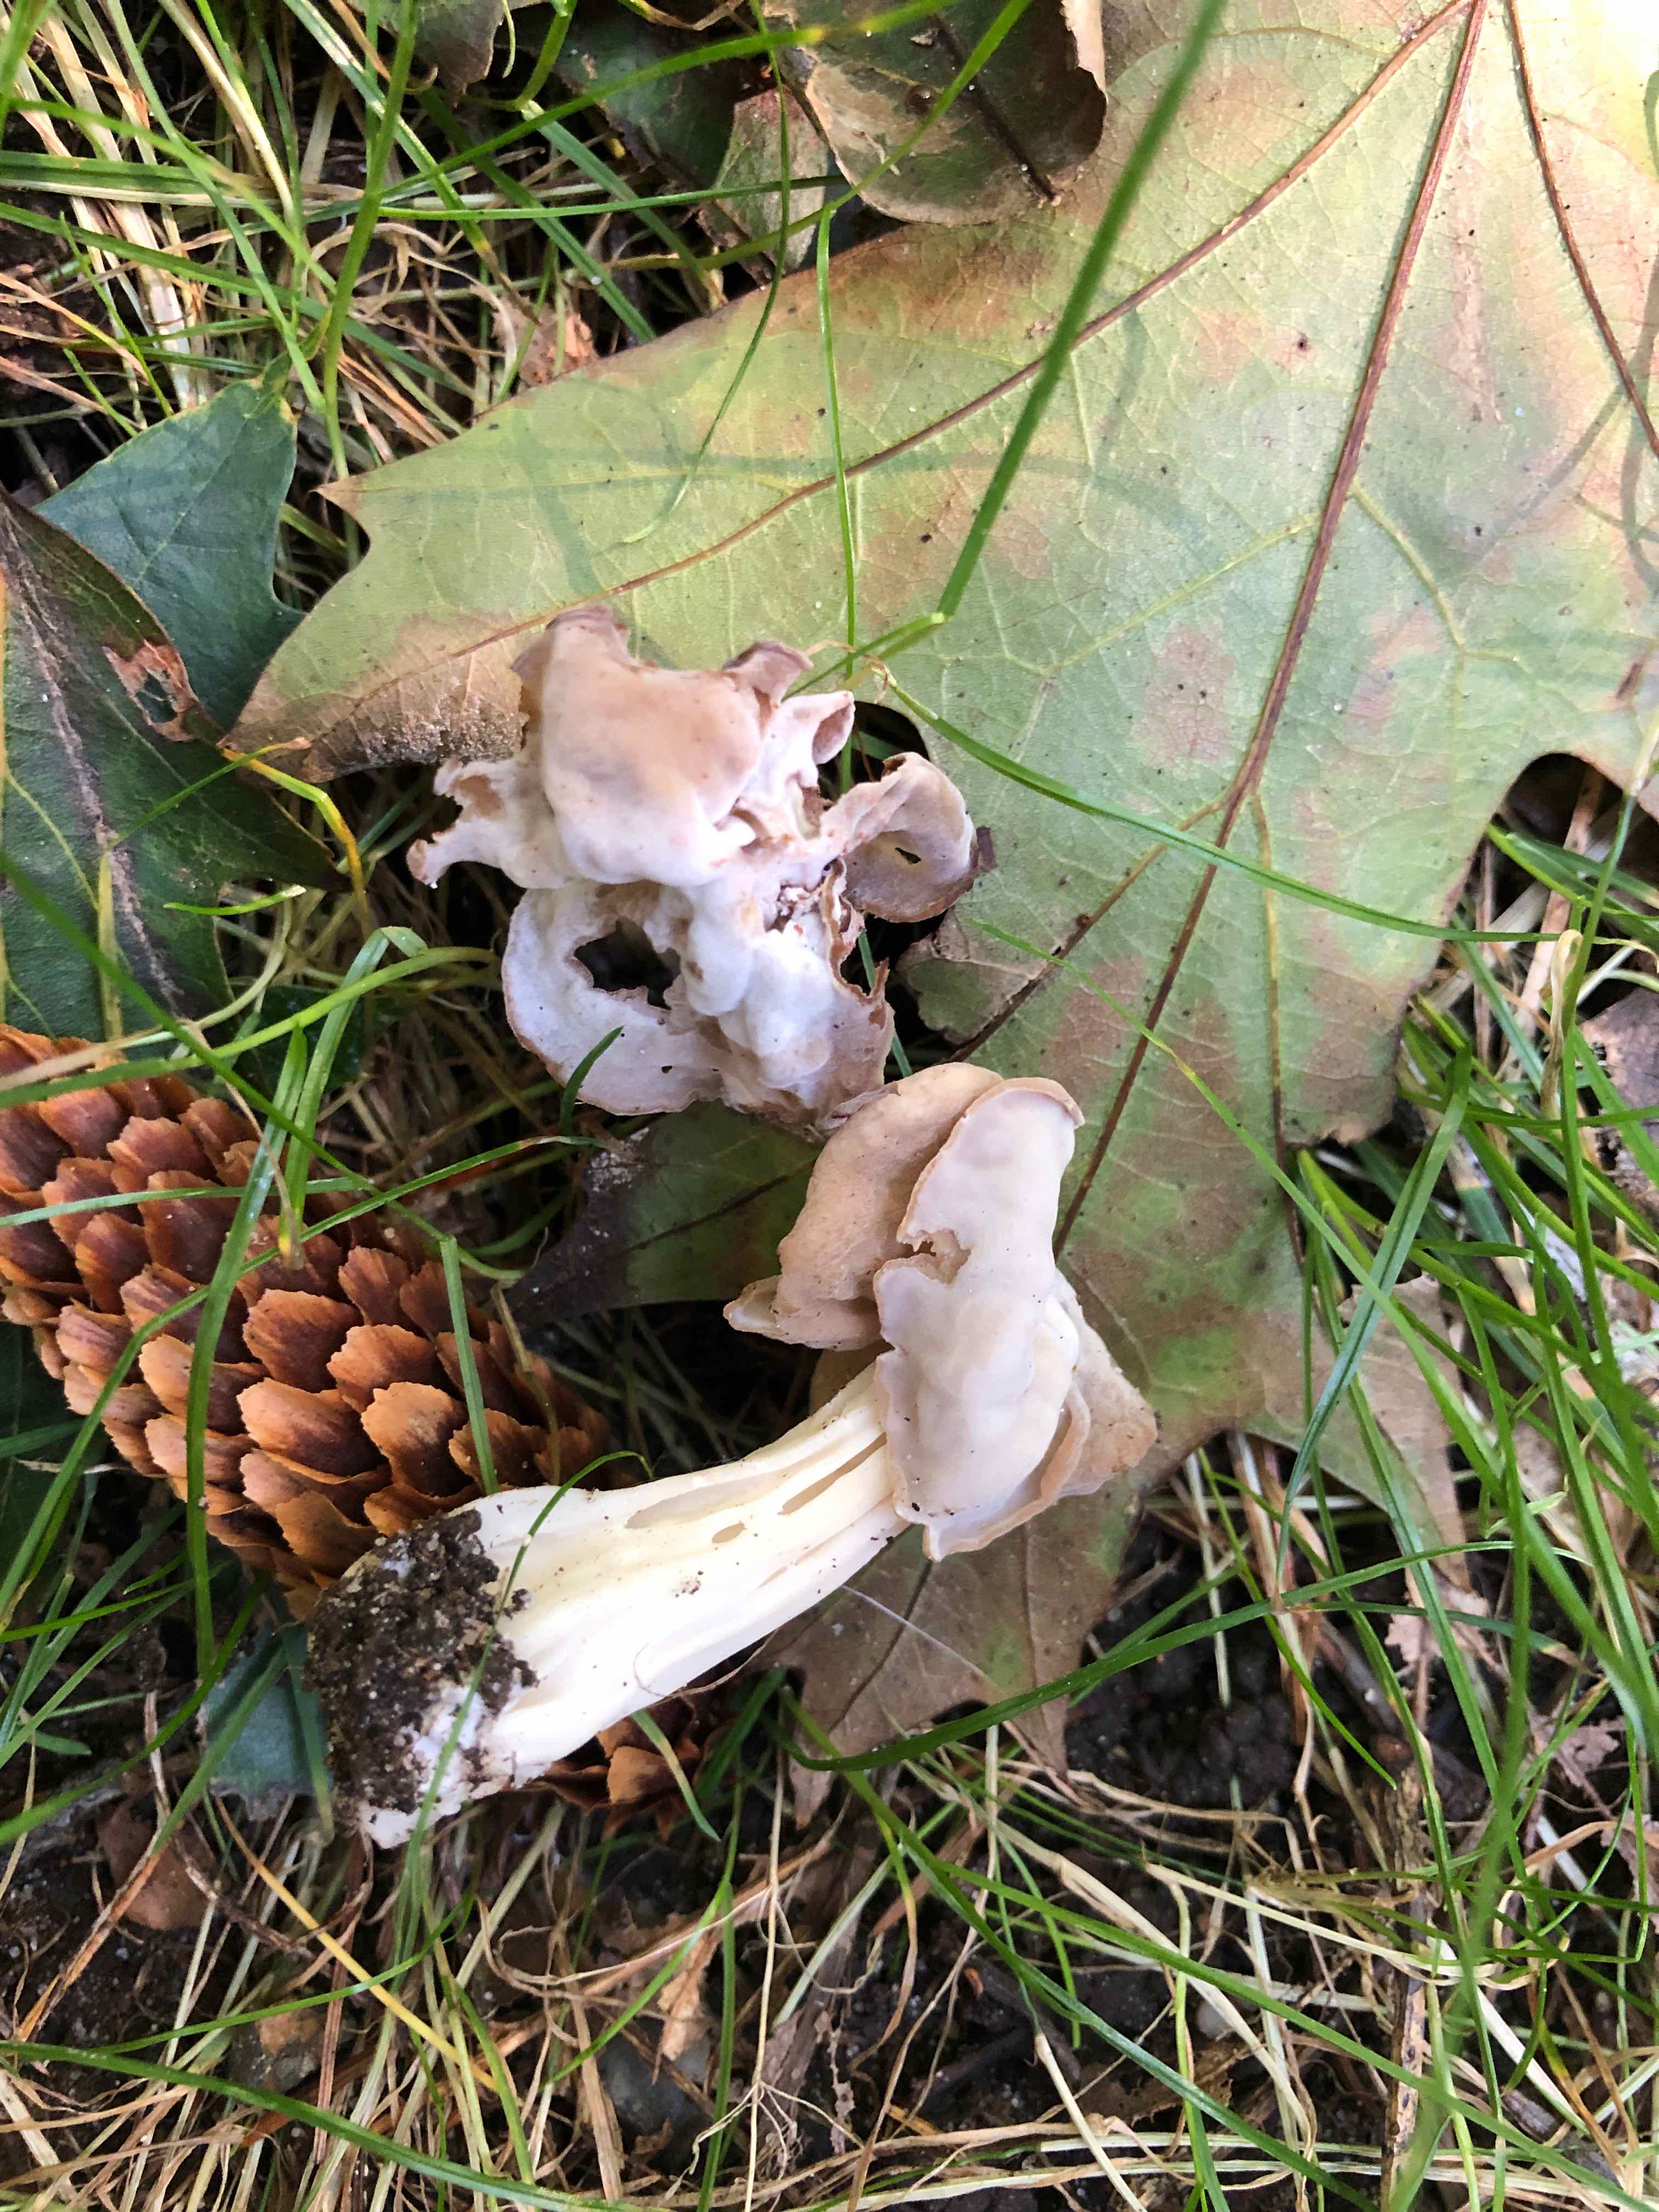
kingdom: Fungi
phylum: Ascomycota
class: Pezizomycetes
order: Pezizales
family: Helvellaceae
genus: Helvella
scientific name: Helvella crispa
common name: kruset foldhat
